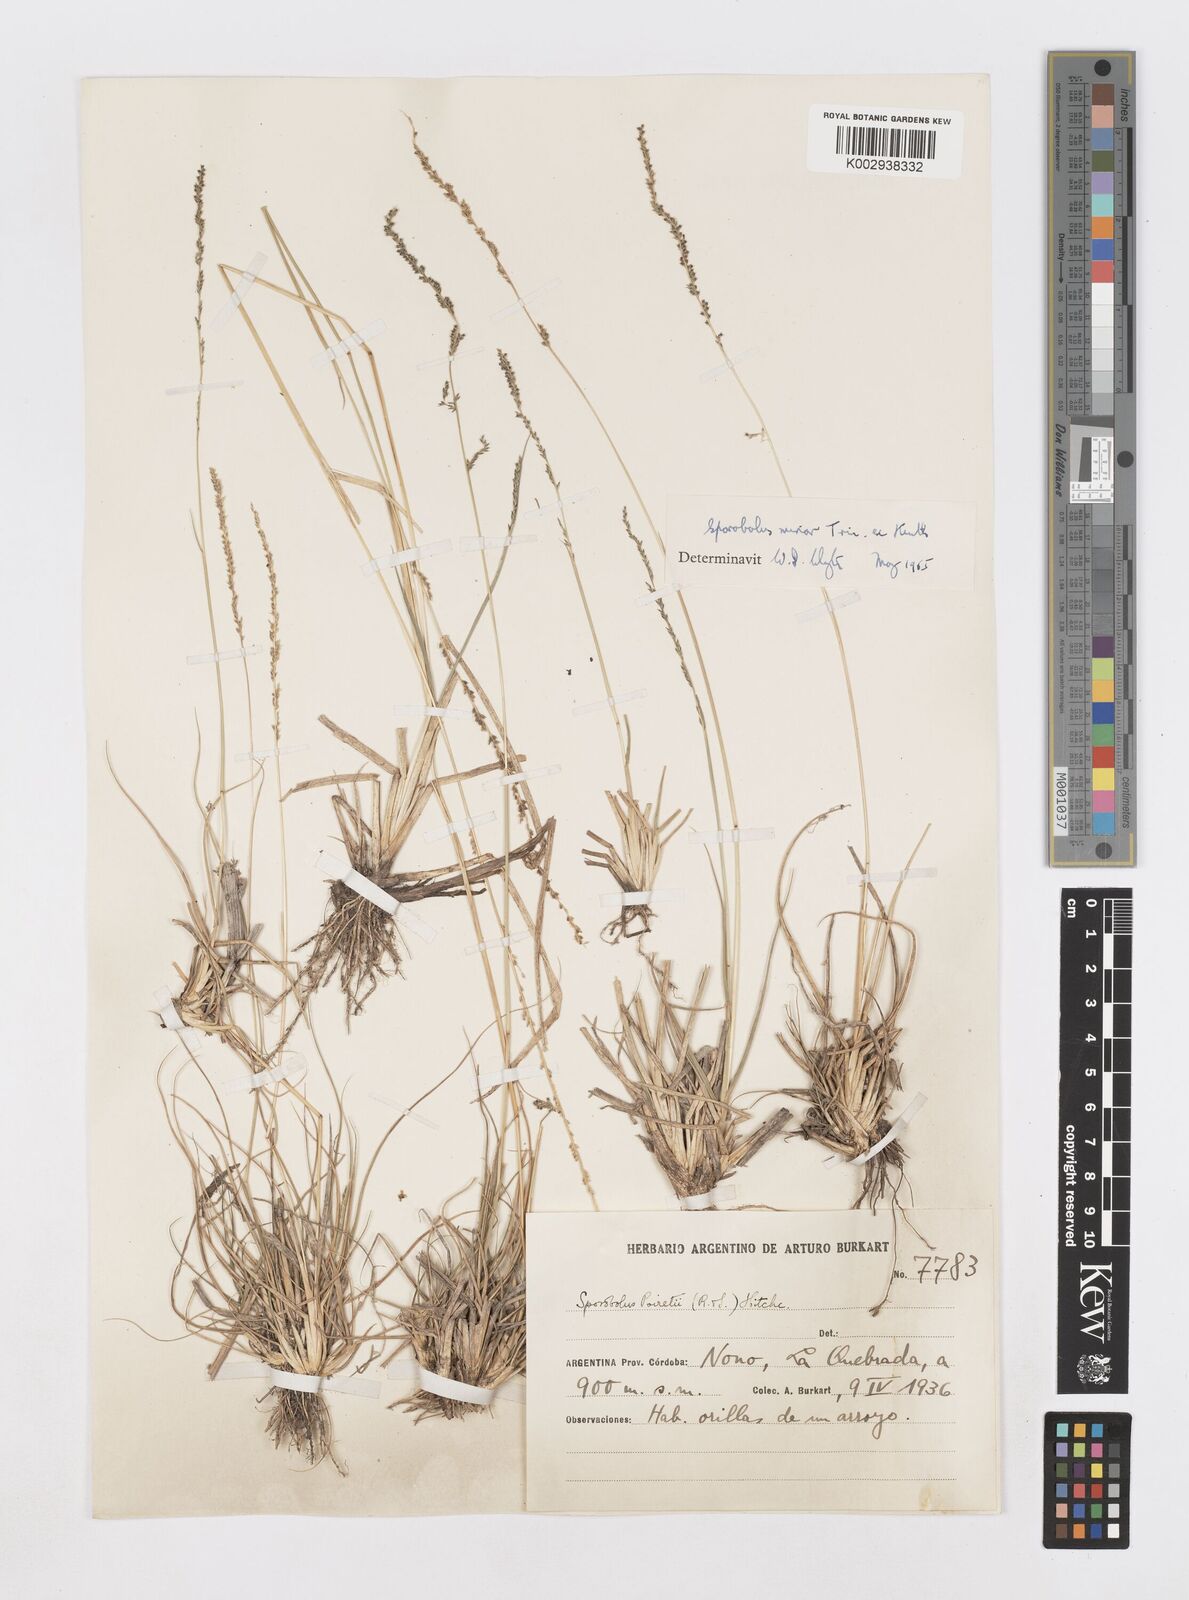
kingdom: Plantae
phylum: Tracheophyta
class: Liliopsida
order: Poales
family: Poaceae
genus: Sporobolus
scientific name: Sporobolus minor
